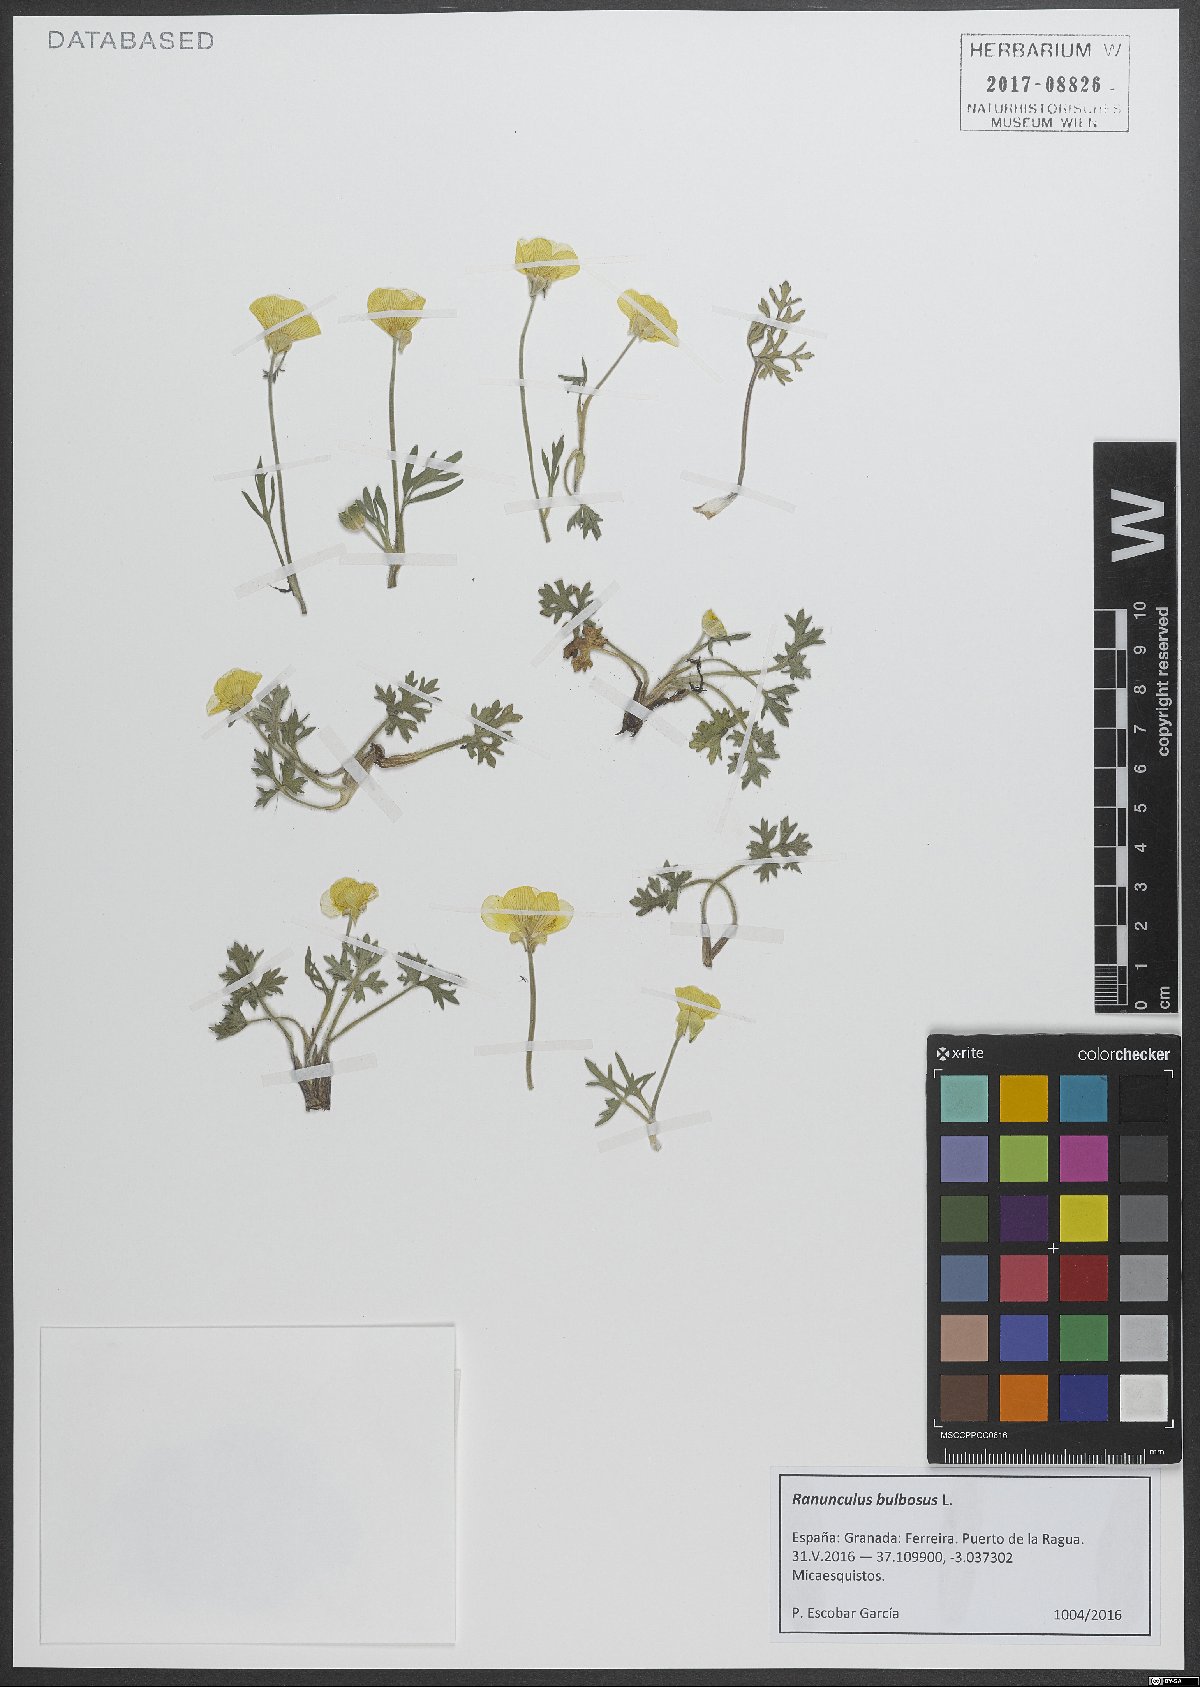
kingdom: Plantae
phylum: Tracheophyta
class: Magnoliopsida
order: Ranunculales
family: Ranunculaceae
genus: Ranunculus
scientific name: Ranunculus bulbosus
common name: Bulbous buttercup
